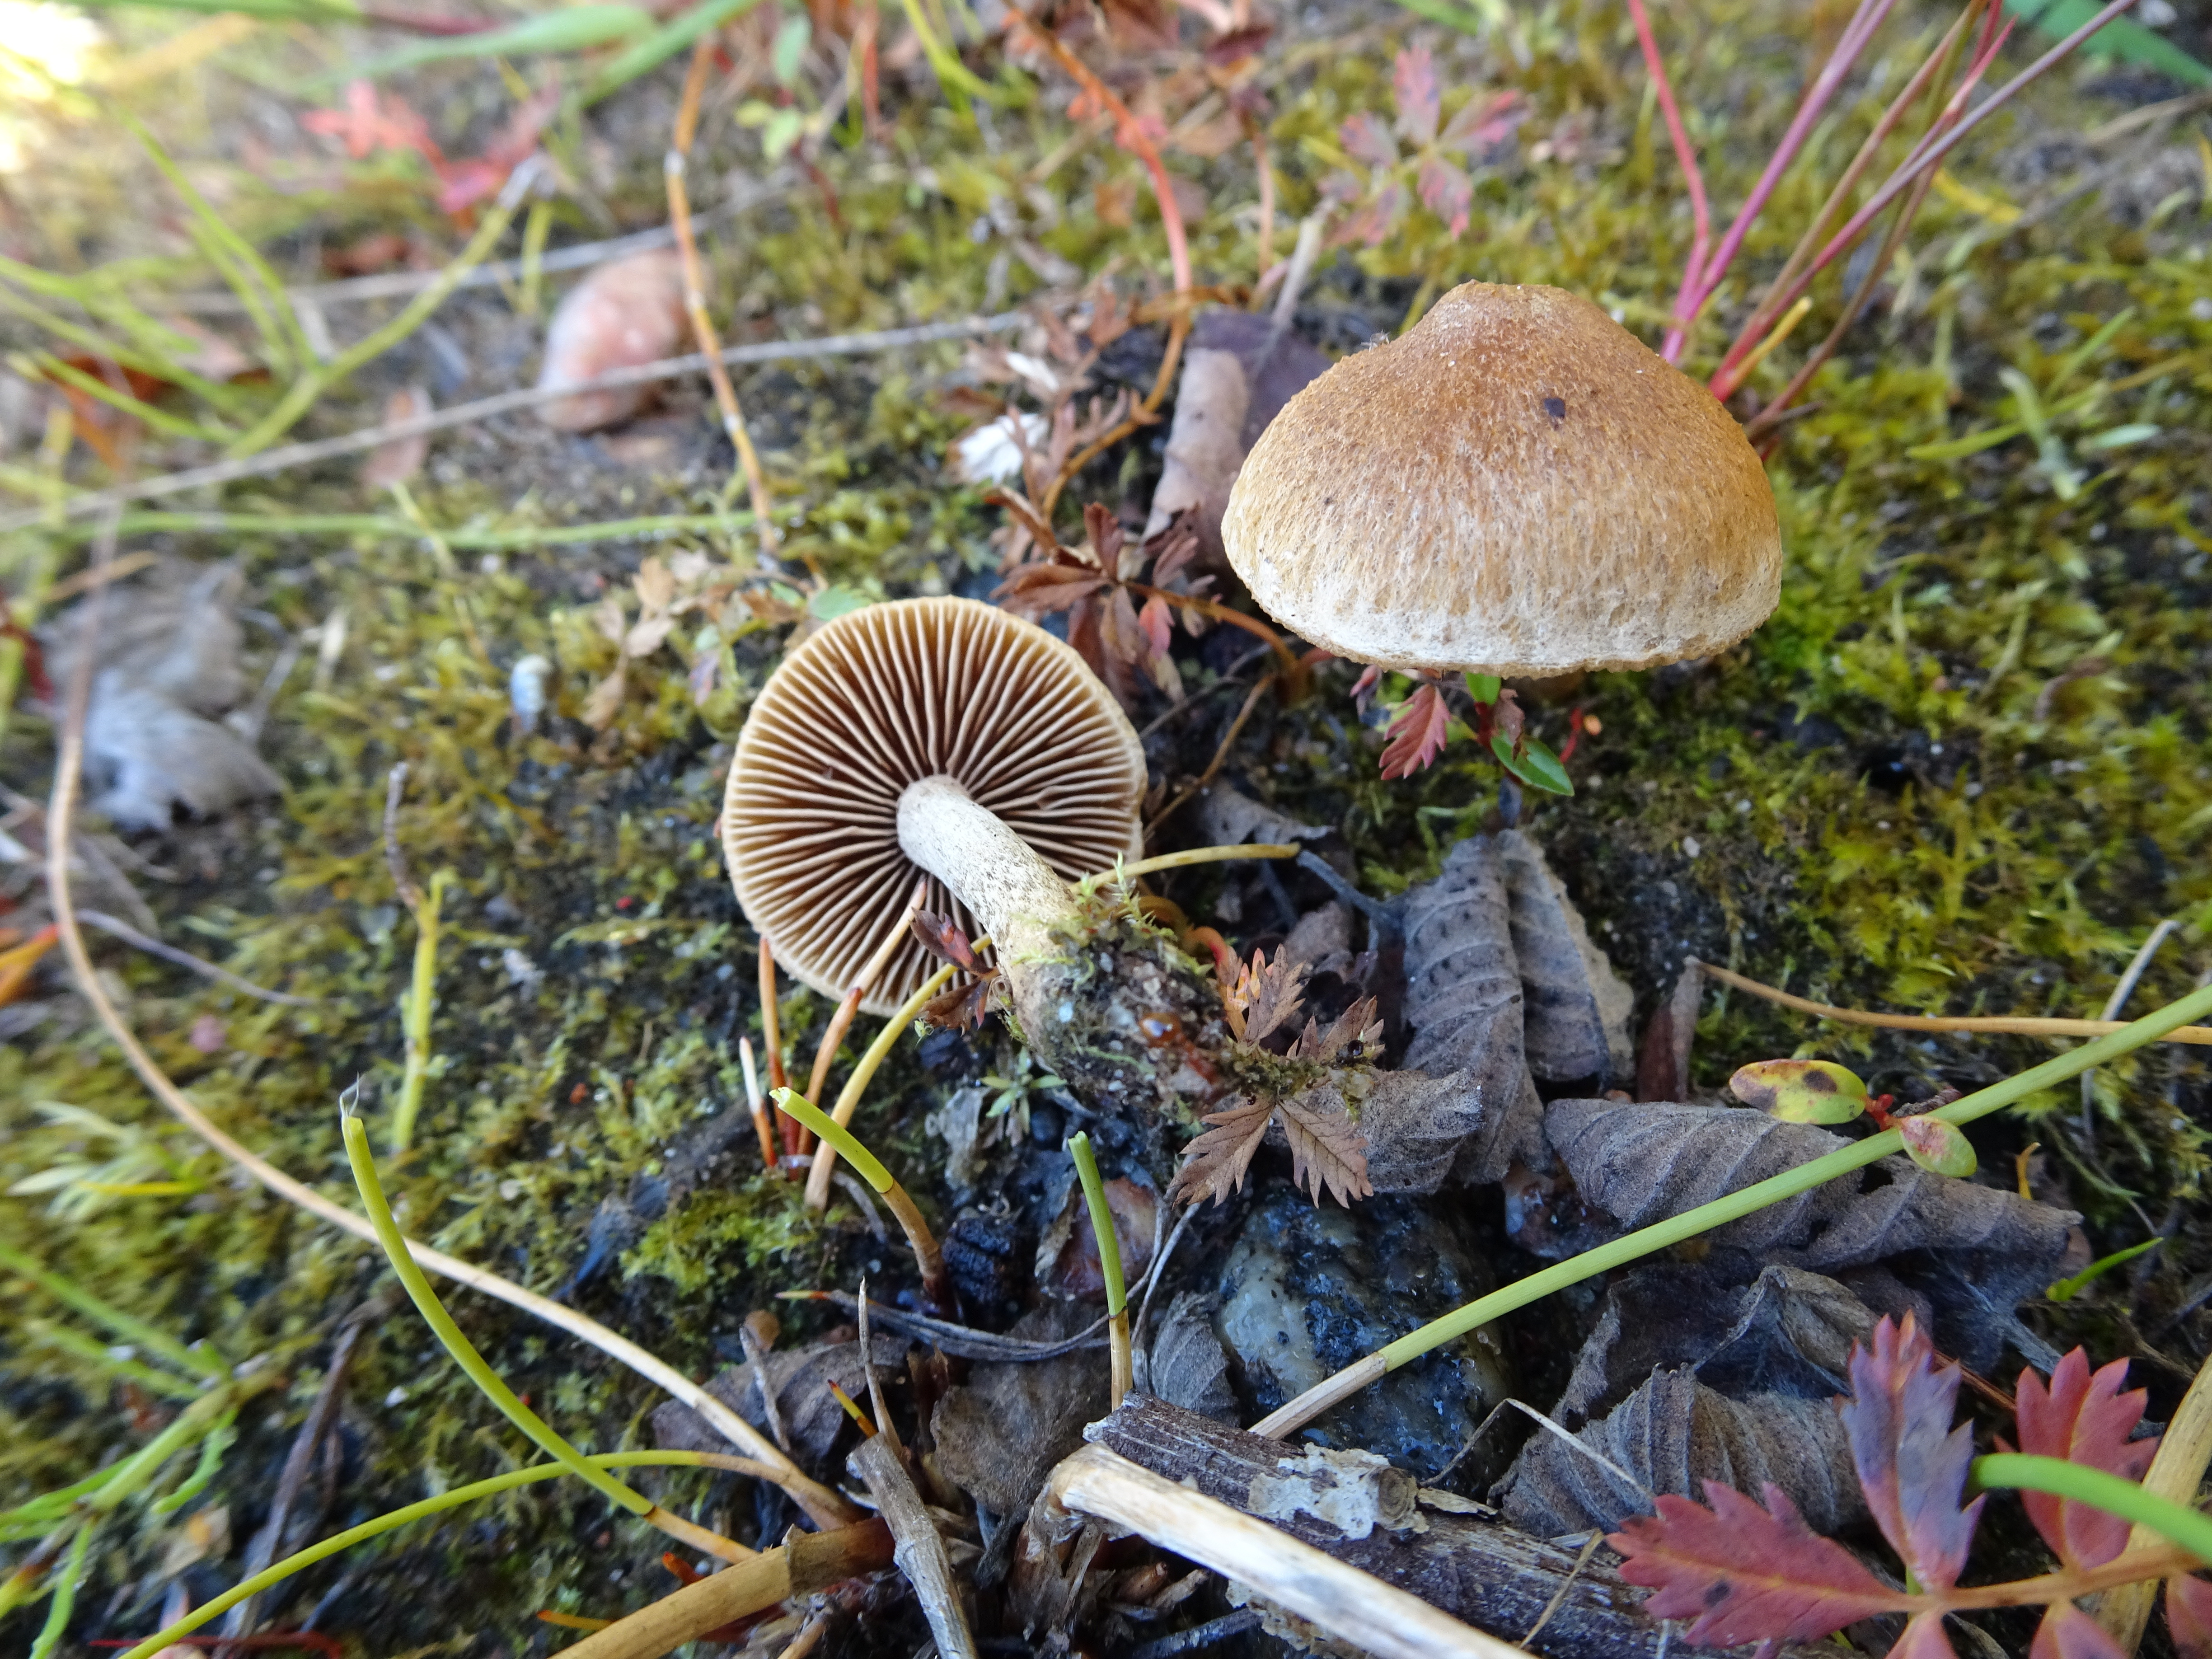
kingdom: Fungi
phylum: Basidiomycota
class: Agaricomycetes
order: Agaricales
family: Inocybaceae
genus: Inocybe
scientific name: Inocybe
